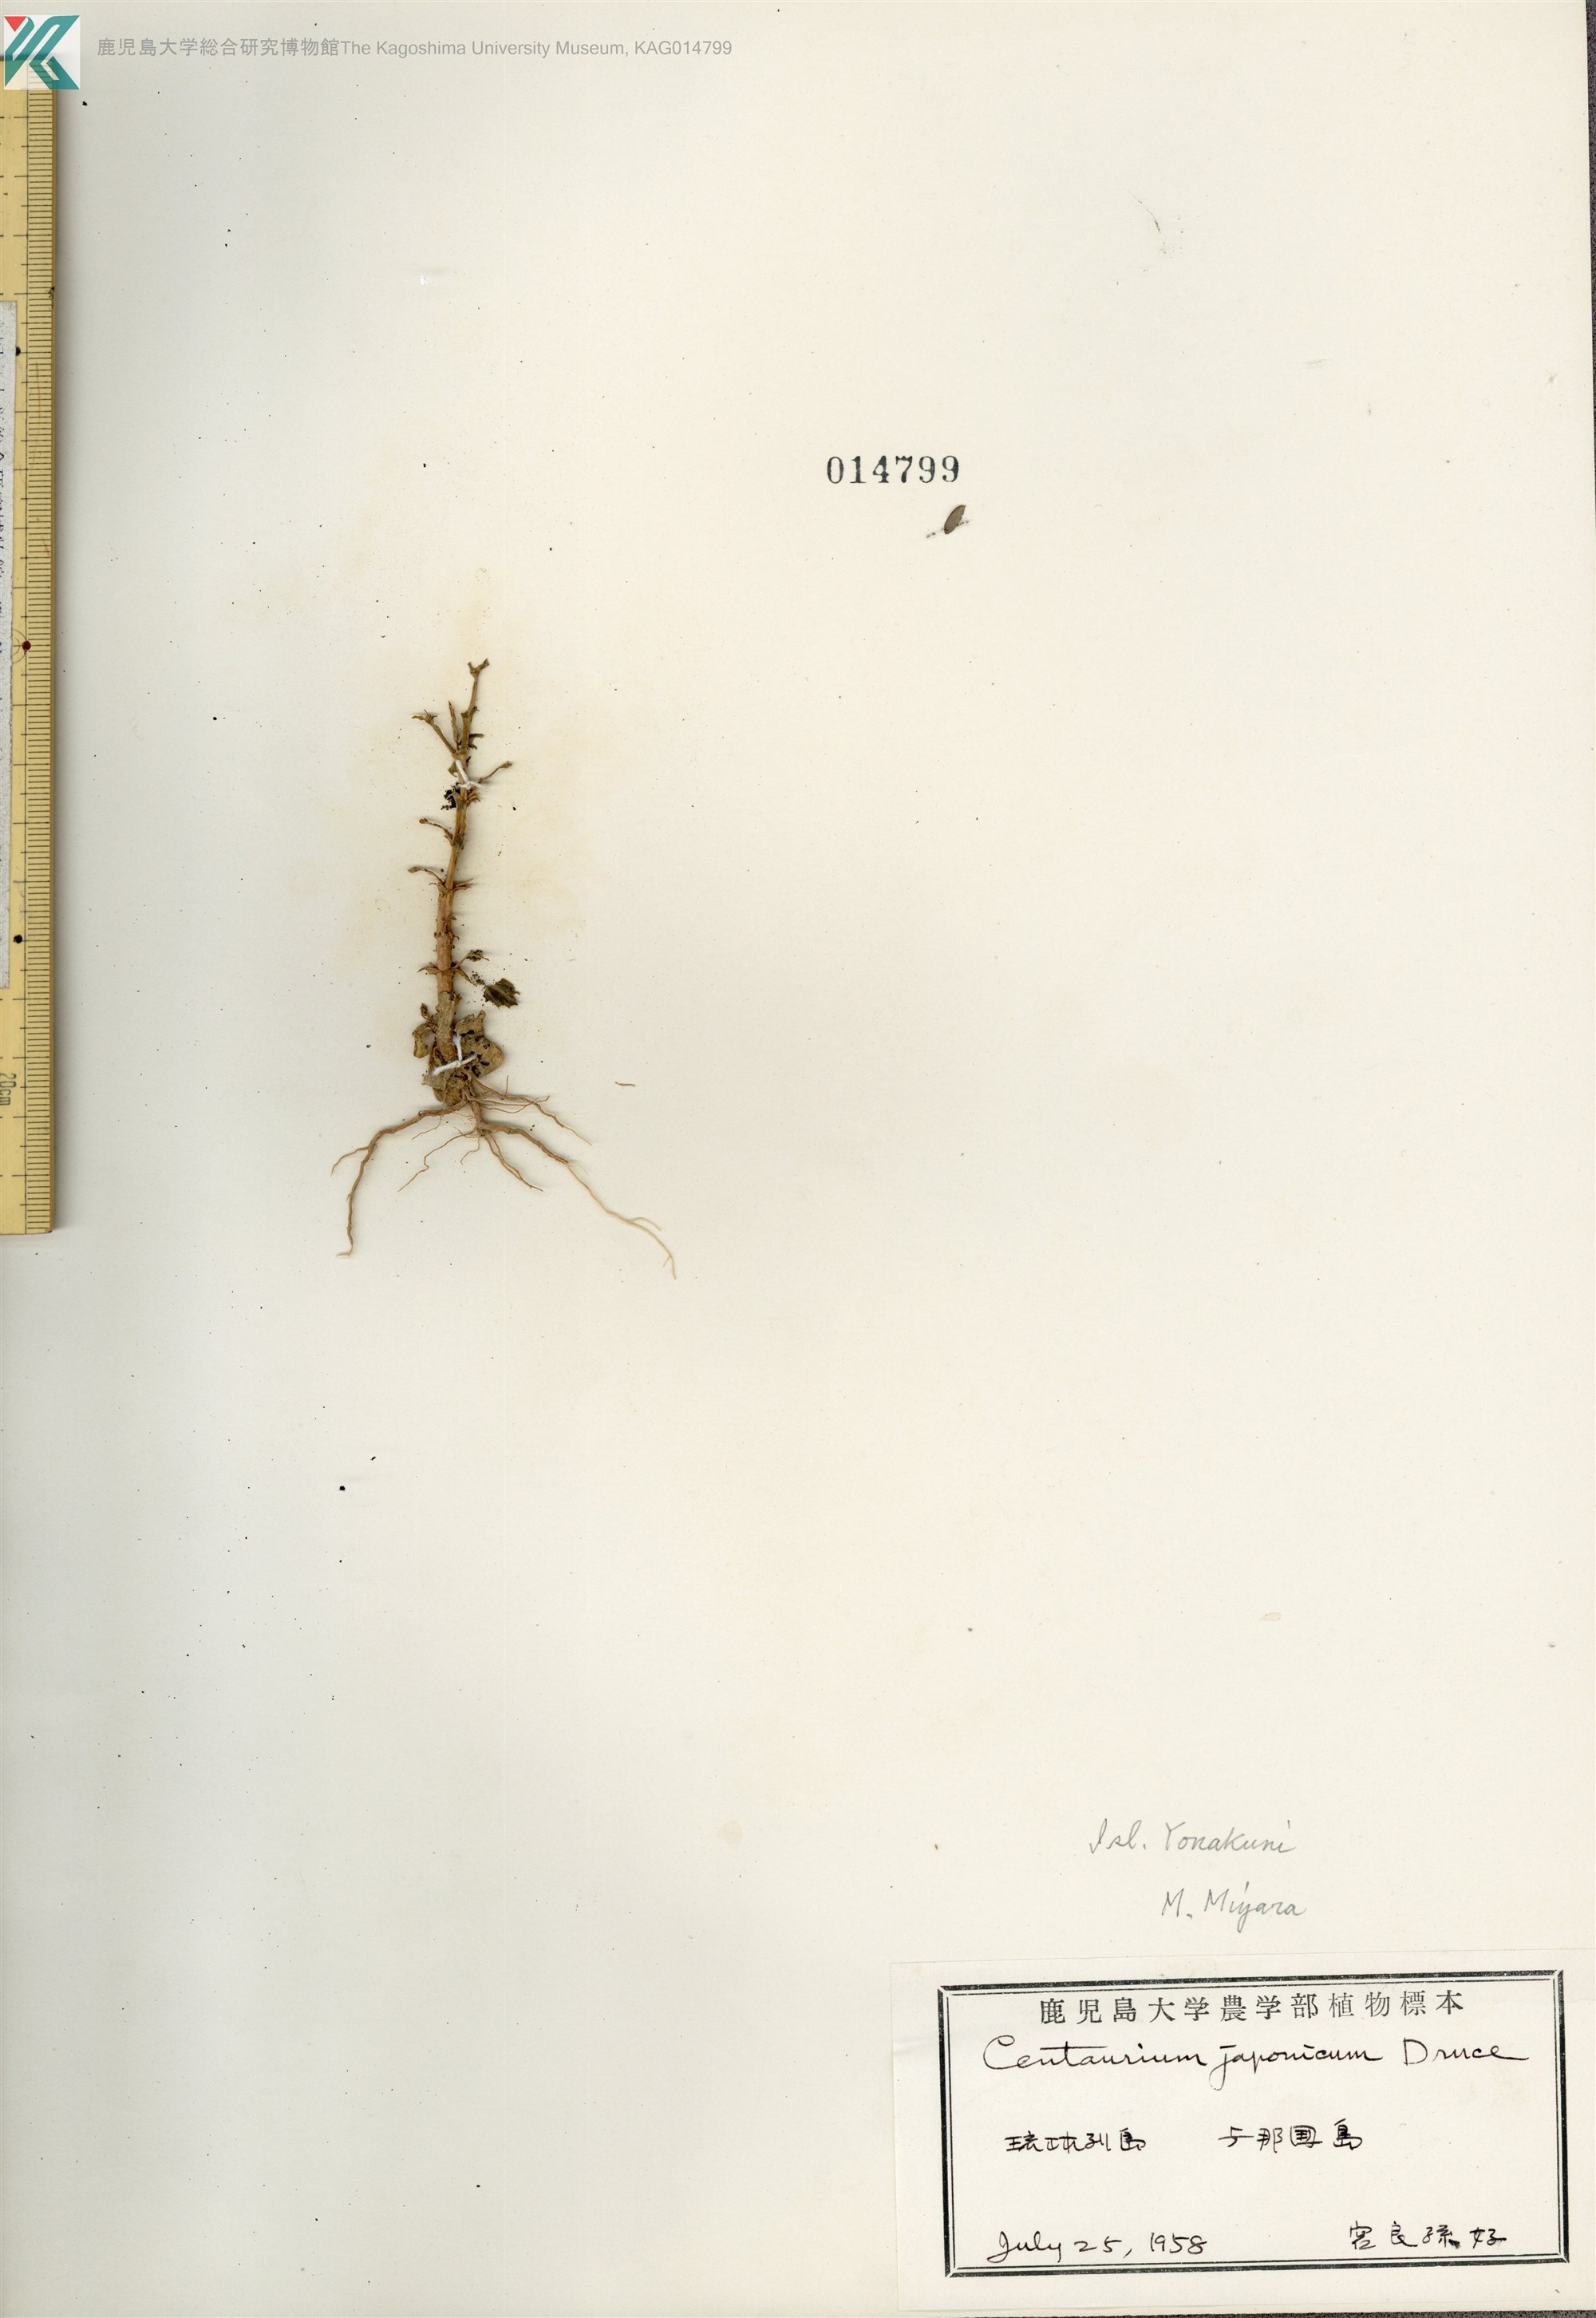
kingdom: Plantae
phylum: Tracheophyta
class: Magnoliopsida
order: Gentianales
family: Gentianaceae
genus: Schenkia
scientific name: Schenkia japonica
